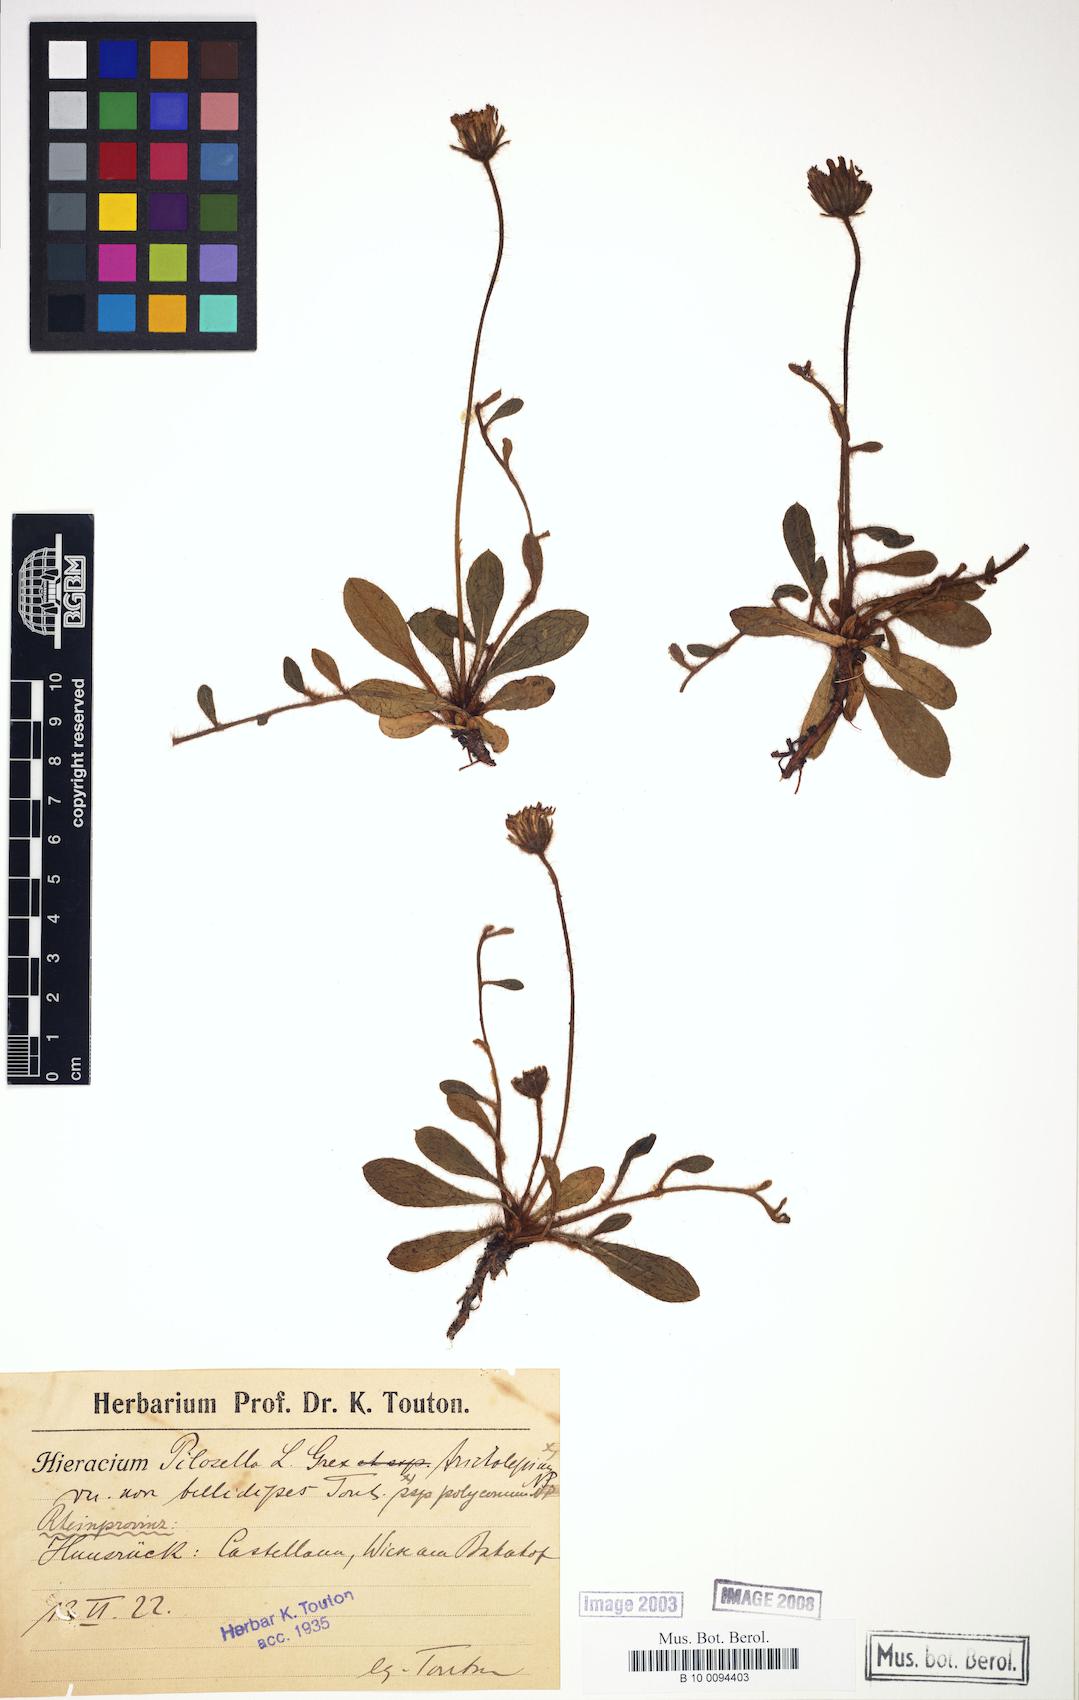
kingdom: Plantae
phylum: Tracheophyta
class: Magnoliopsida
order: Asterales
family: Asteraceae
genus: Pilosella
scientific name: Pilosella officinarum
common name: Mouse-ear hawkweed
